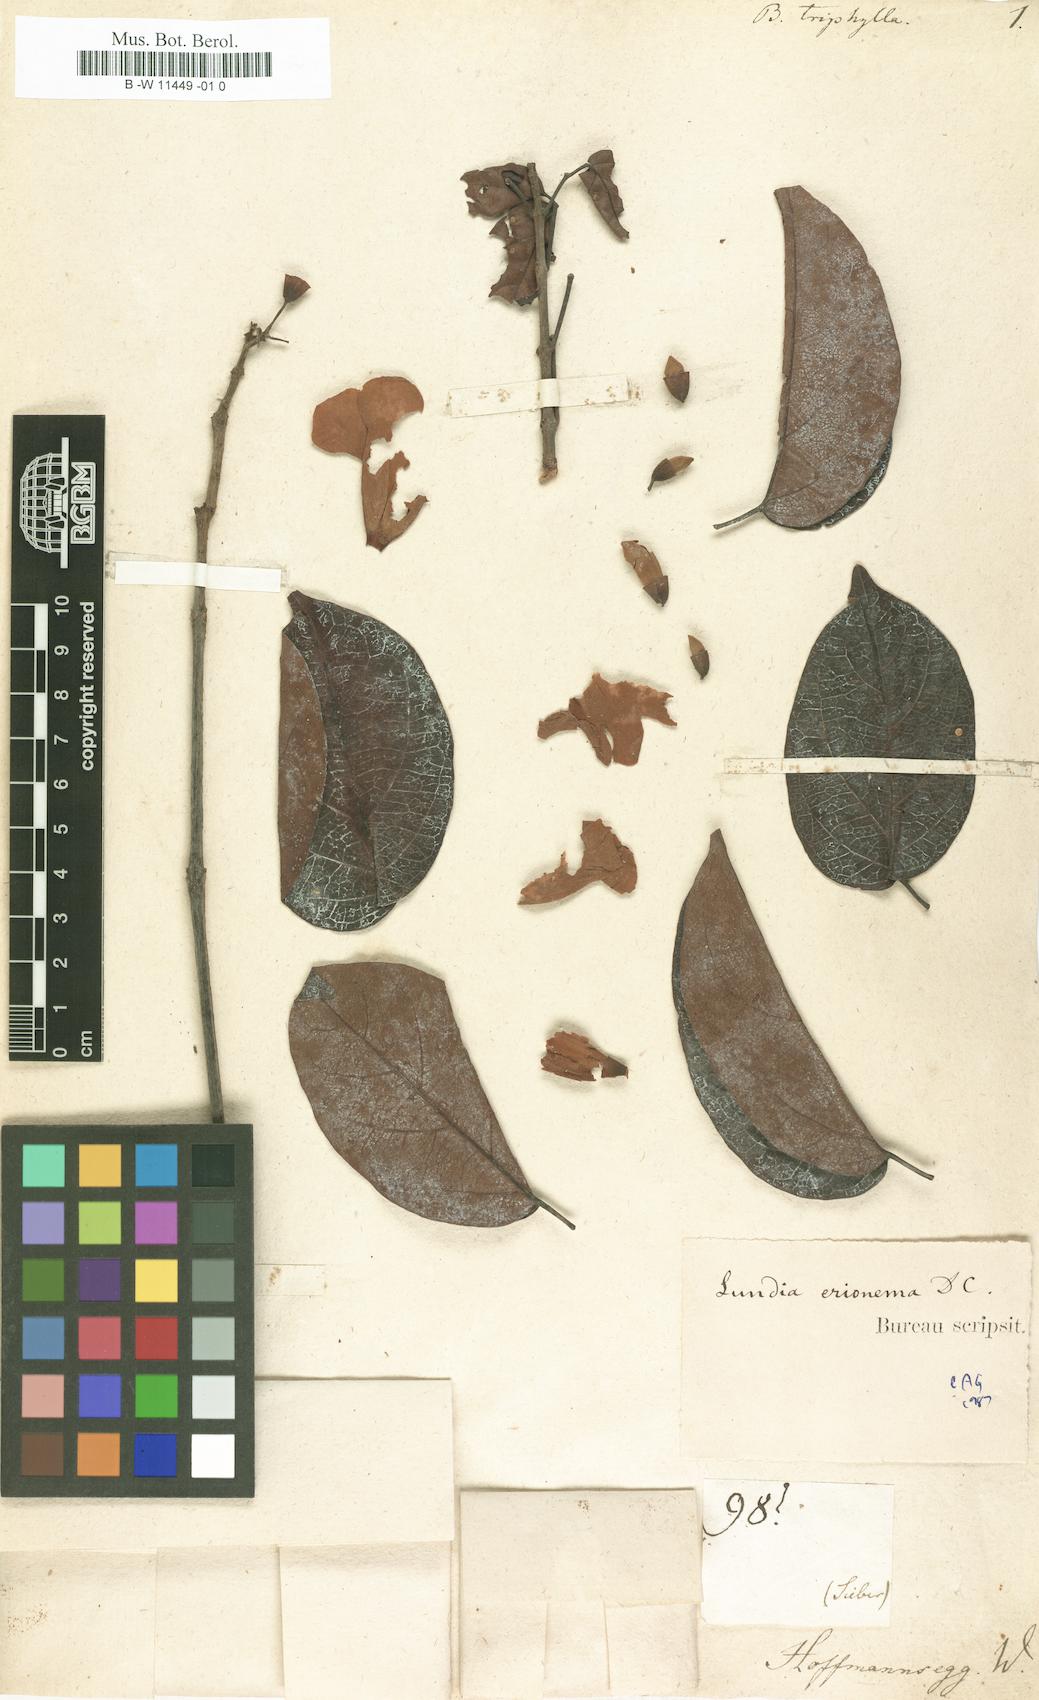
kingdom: Plantae
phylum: Tracheophyta
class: Magnoliopsida
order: Lamiales
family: Bignoniaceae
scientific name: Bignoniaceae
